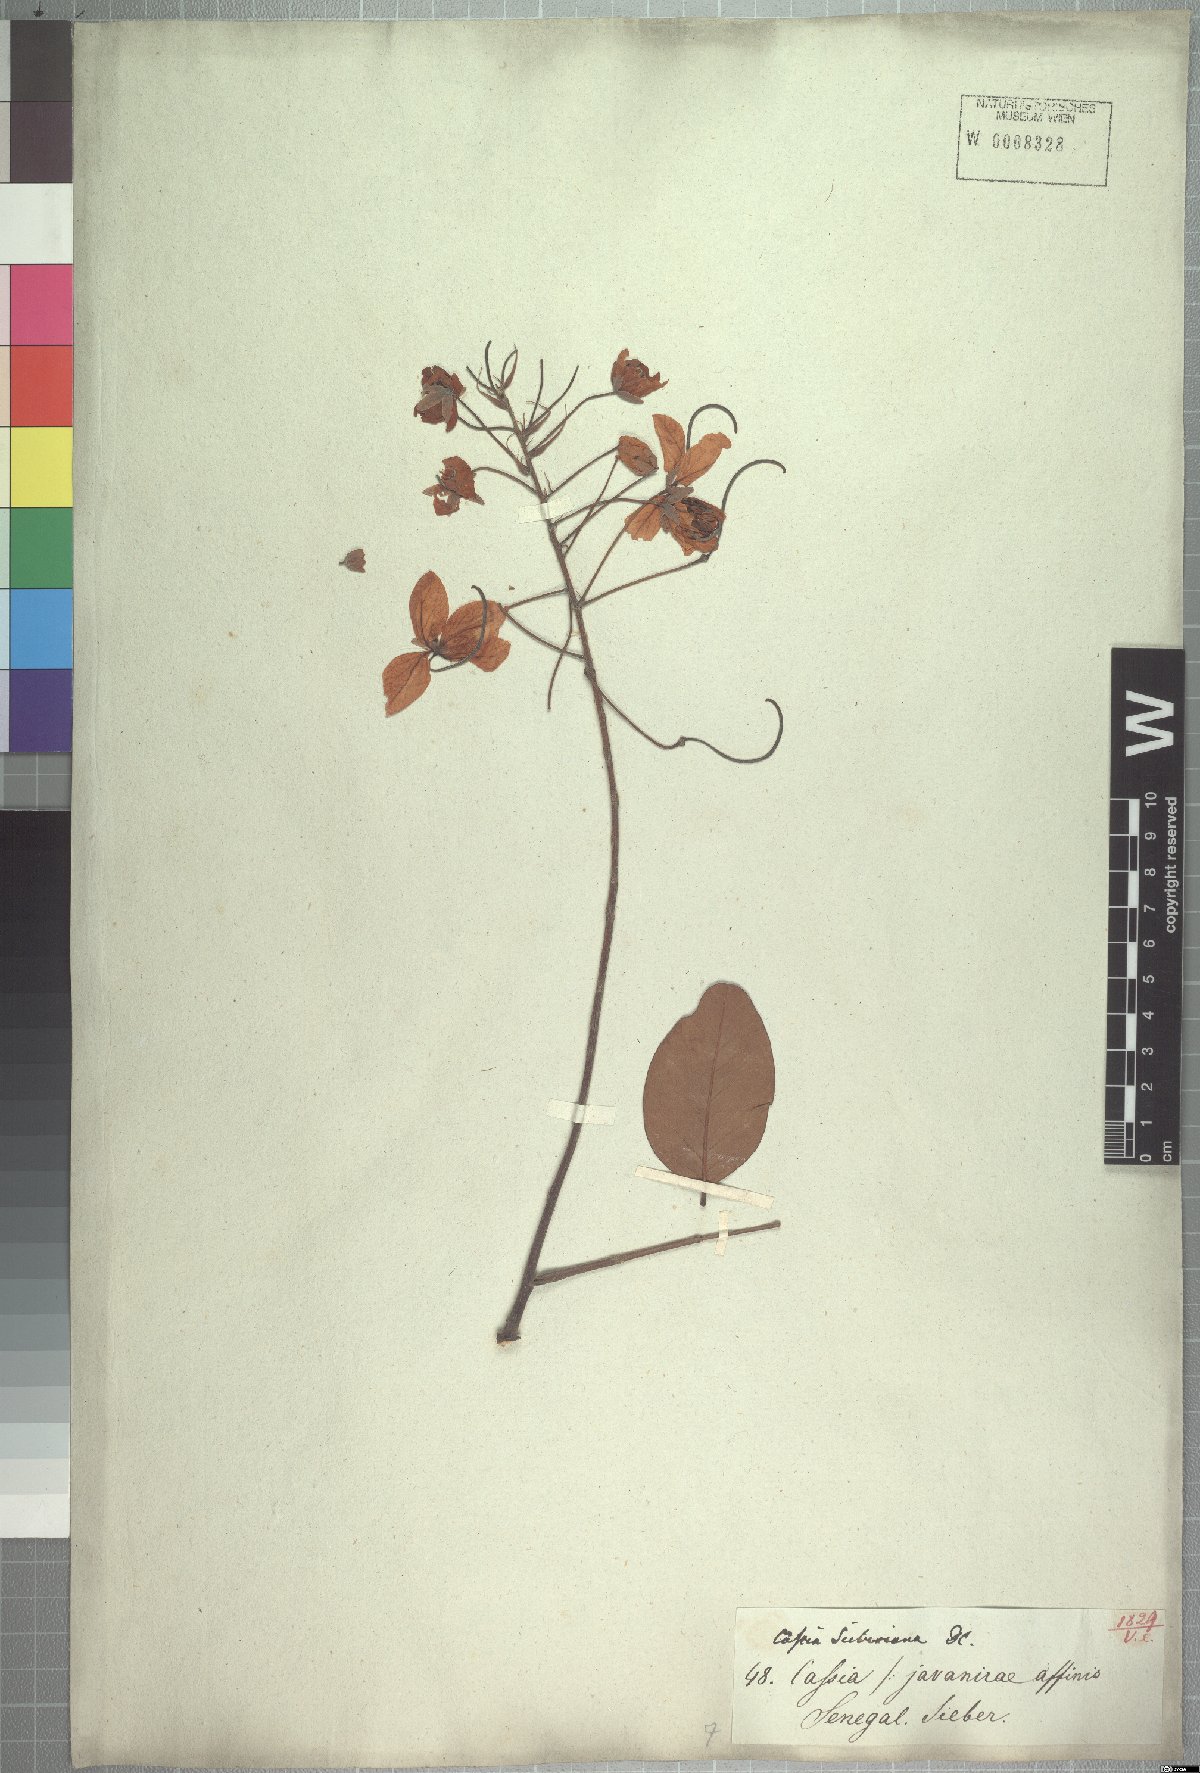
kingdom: Plantae
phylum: Tracheophyta
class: Magnoliopsida
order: Fabales
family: Fabaceae
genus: Cassia
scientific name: Cassia sieberiana
